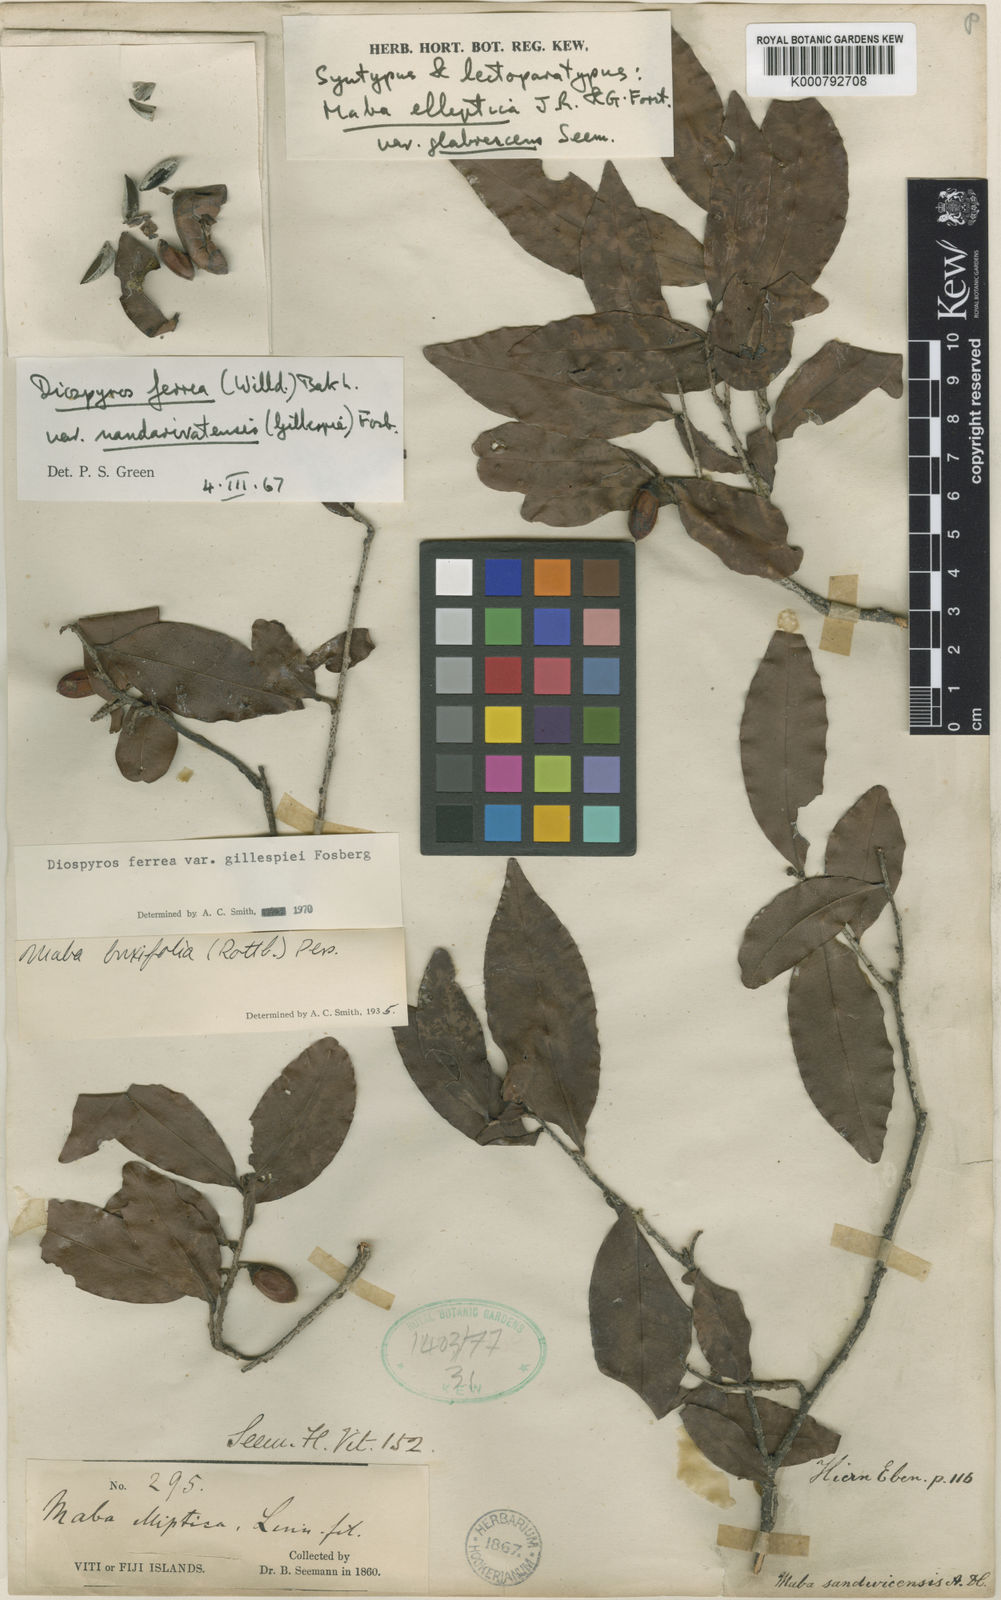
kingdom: Plantae
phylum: Tracheophyta
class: Magnoliopsida
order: Ericales
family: Ebenaceae
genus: Diospyros
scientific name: Diospyros ferrea
